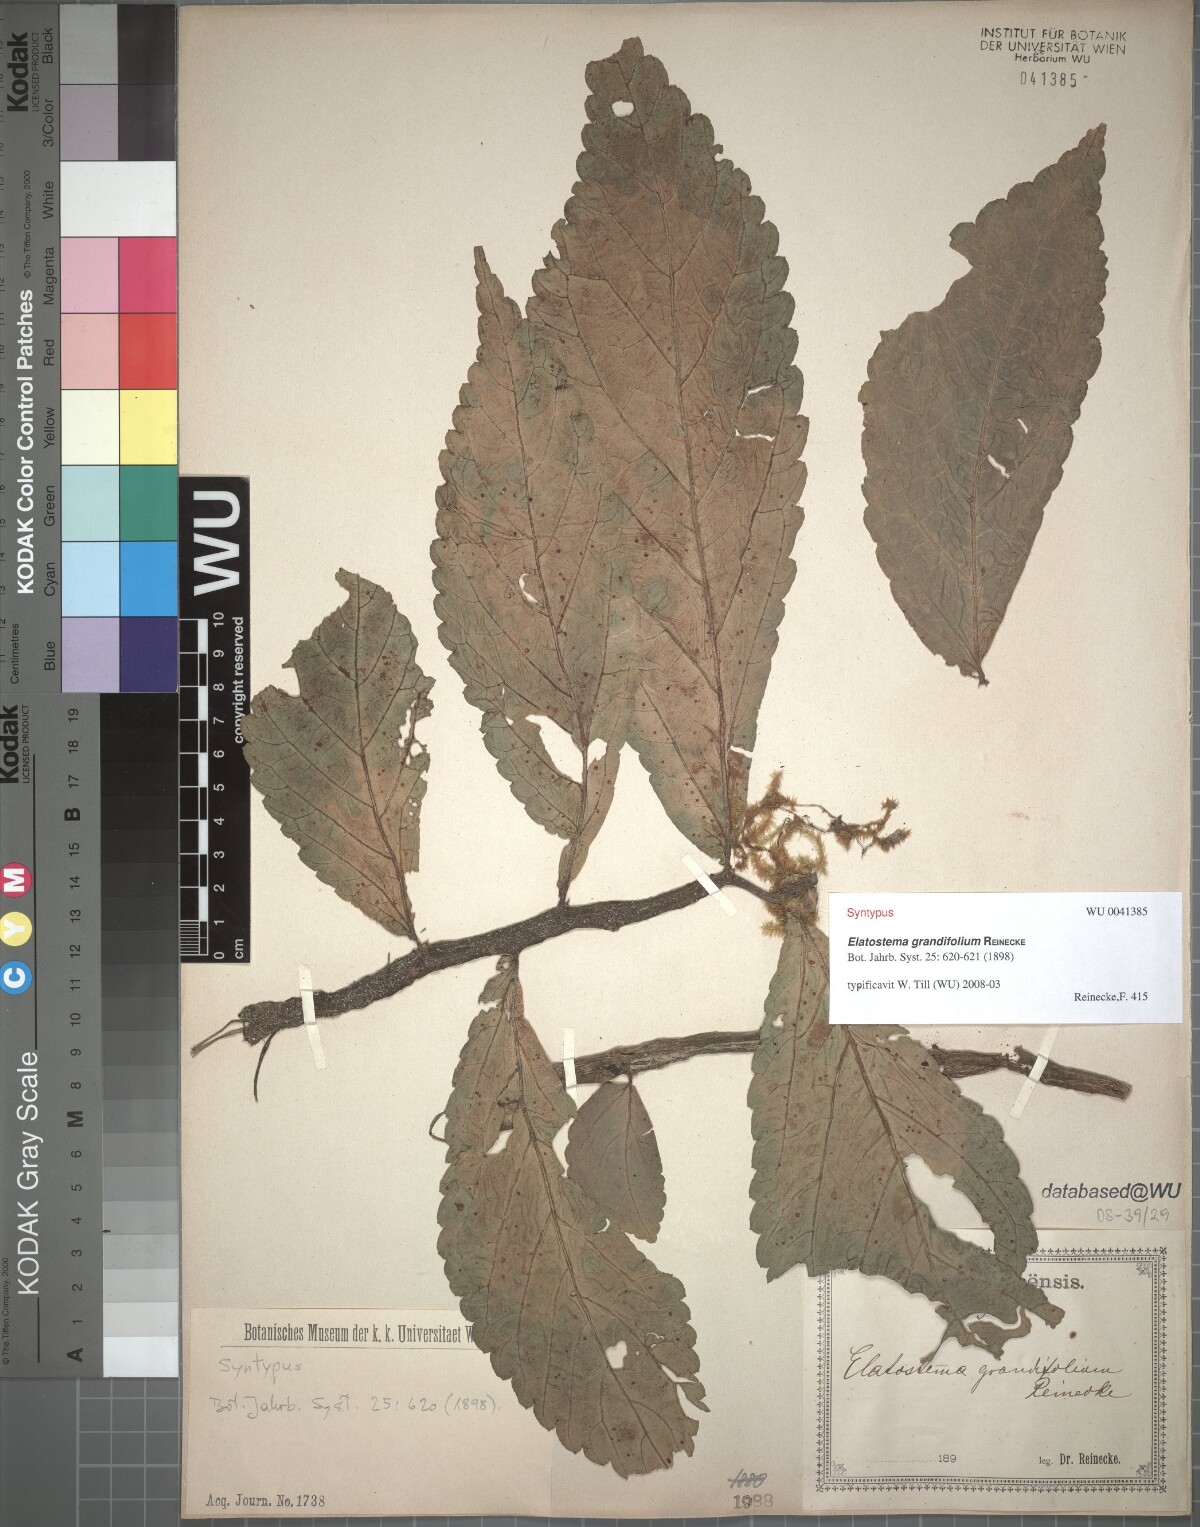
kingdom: Plantae
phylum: Tracheophyta
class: Magnoliopsida
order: Rosales
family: Urticaceae
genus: Elatostema
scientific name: Elatostema grandifolium
